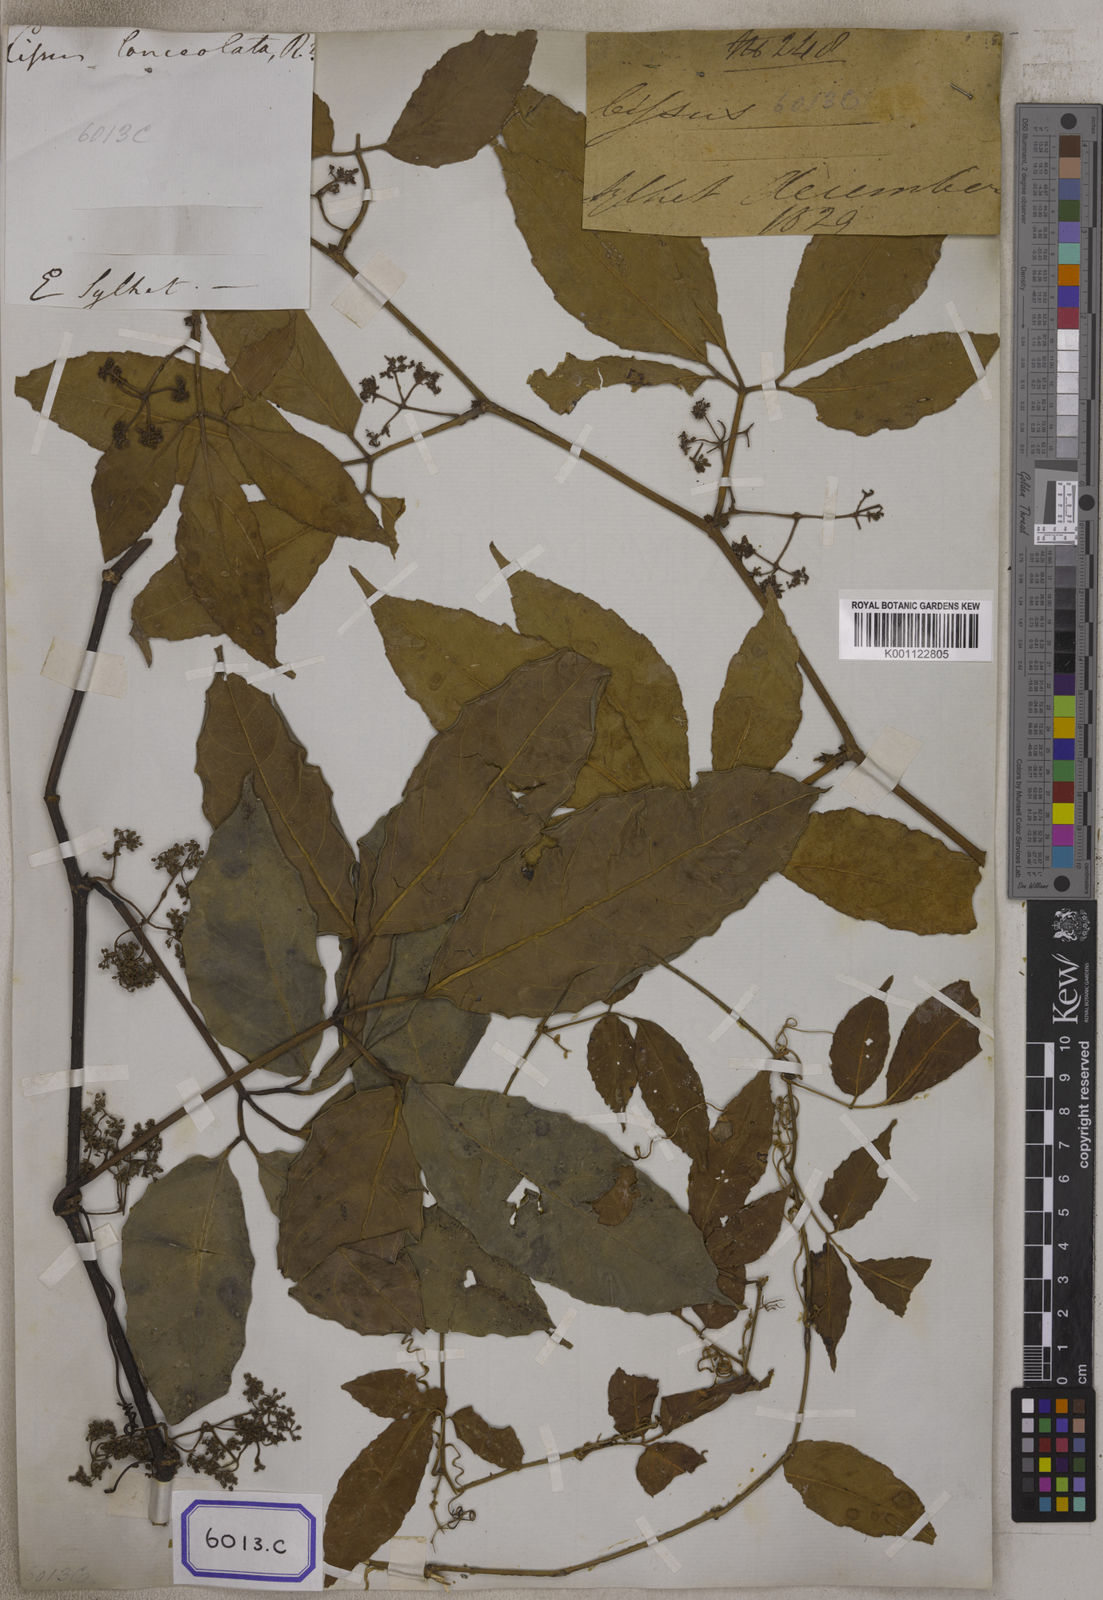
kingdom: Plantae
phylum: Tracheophyta
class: Magnoliopsida
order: Vitales
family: Vitaceae
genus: Vitis
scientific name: Vitis
